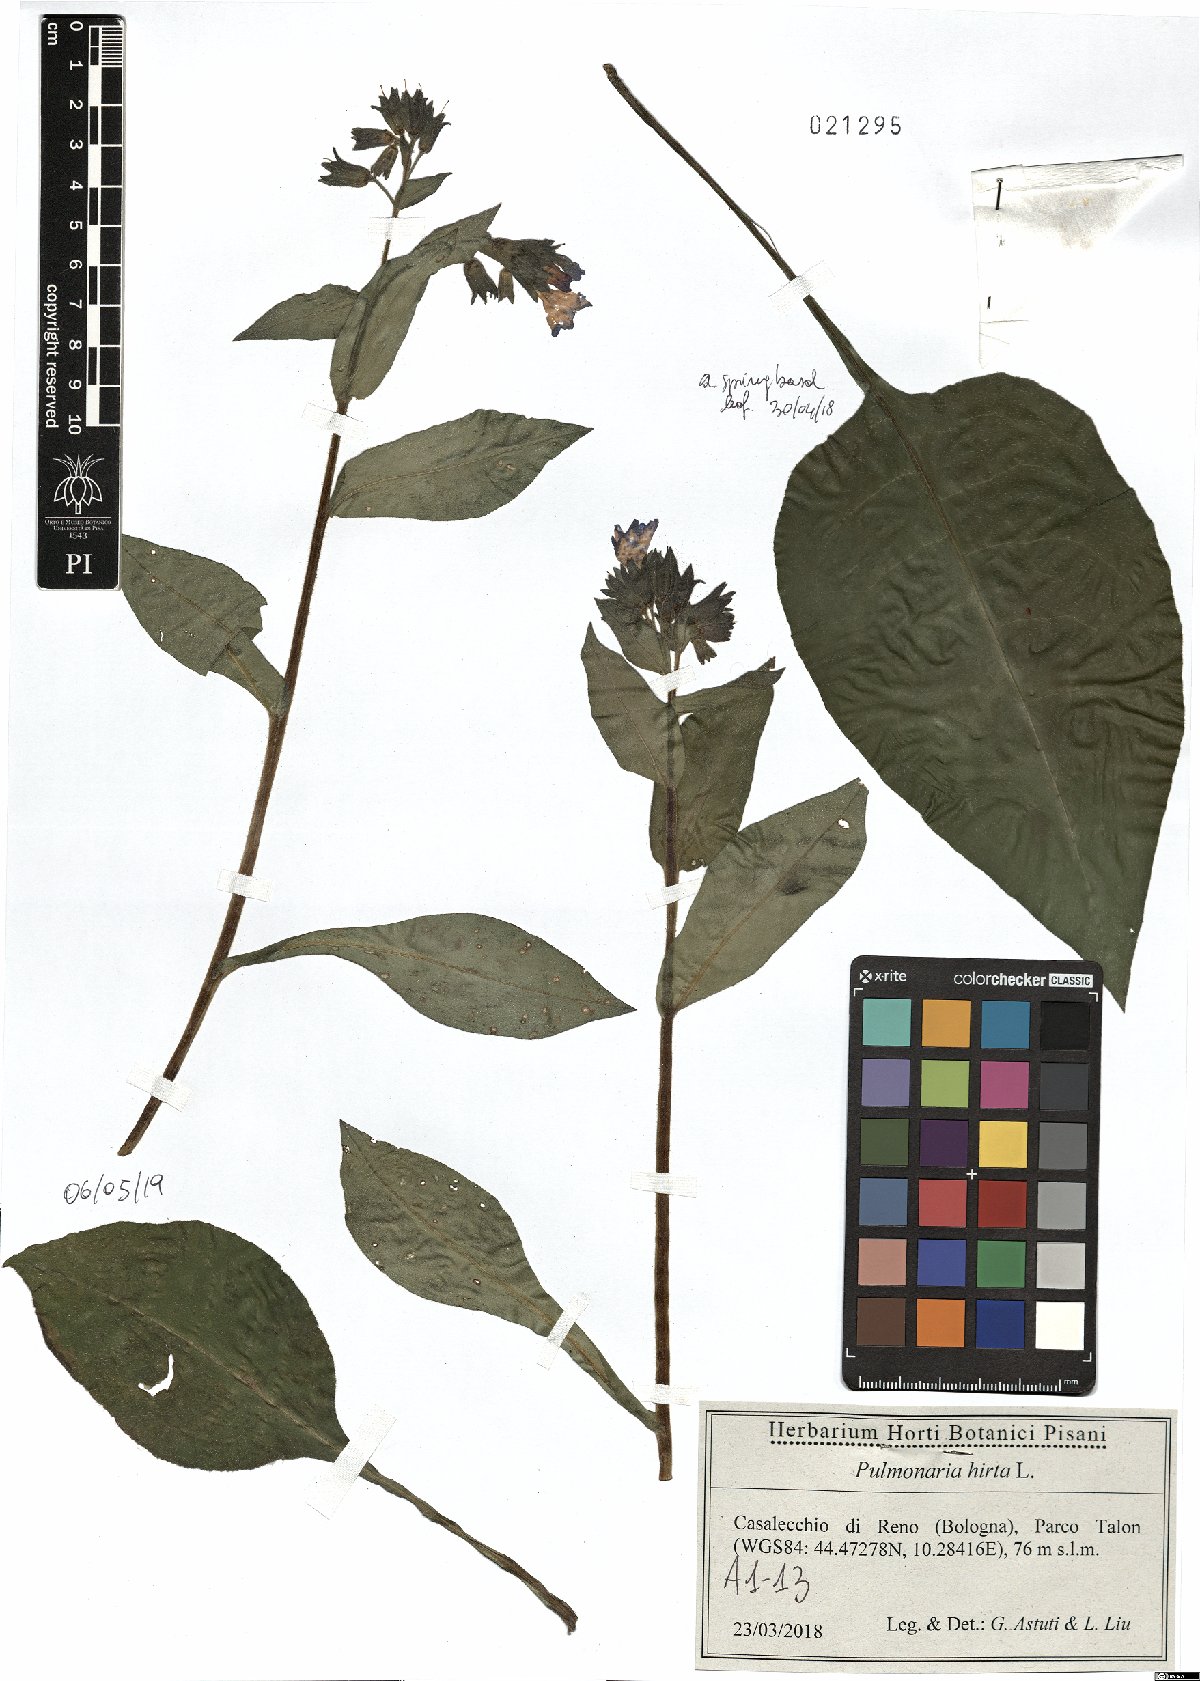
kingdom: Plantae
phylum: Tracheophyta
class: Magnoliopsida
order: Boraginales
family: Boraginaceae
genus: Pulmonaria
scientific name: Pulmonaria hirta
